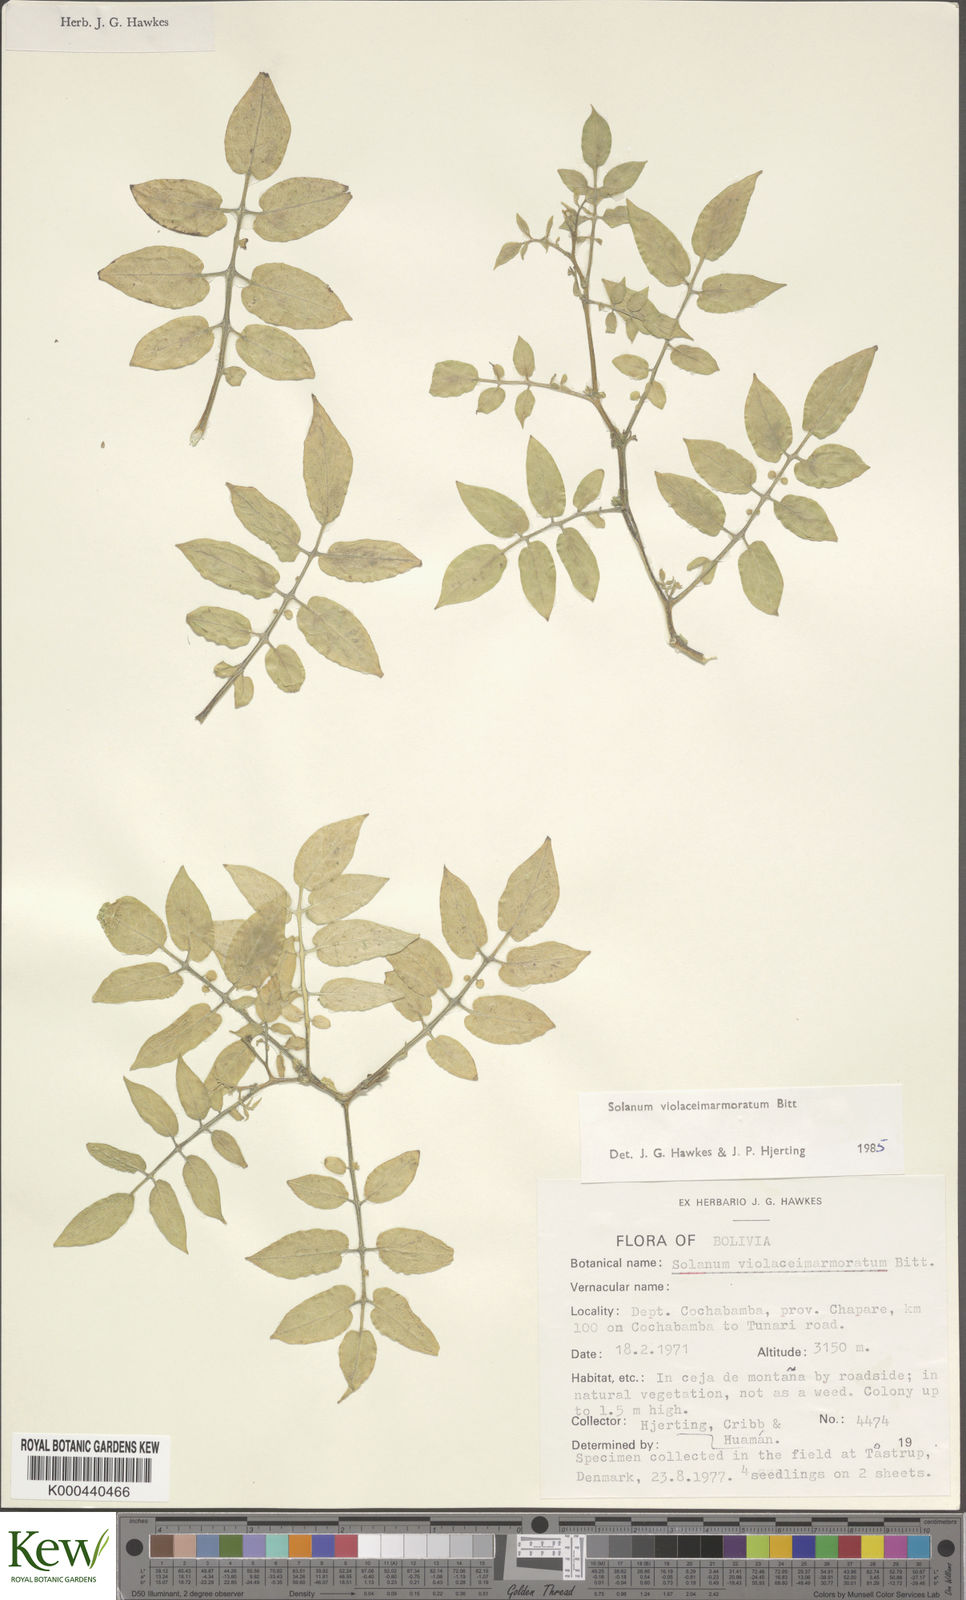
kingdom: Plantae
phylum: Tracheophyta
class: Magnoliopsida
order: Solanales
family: Solanaceae
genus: Solanum
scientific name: Solanum violaceimarmoratum
